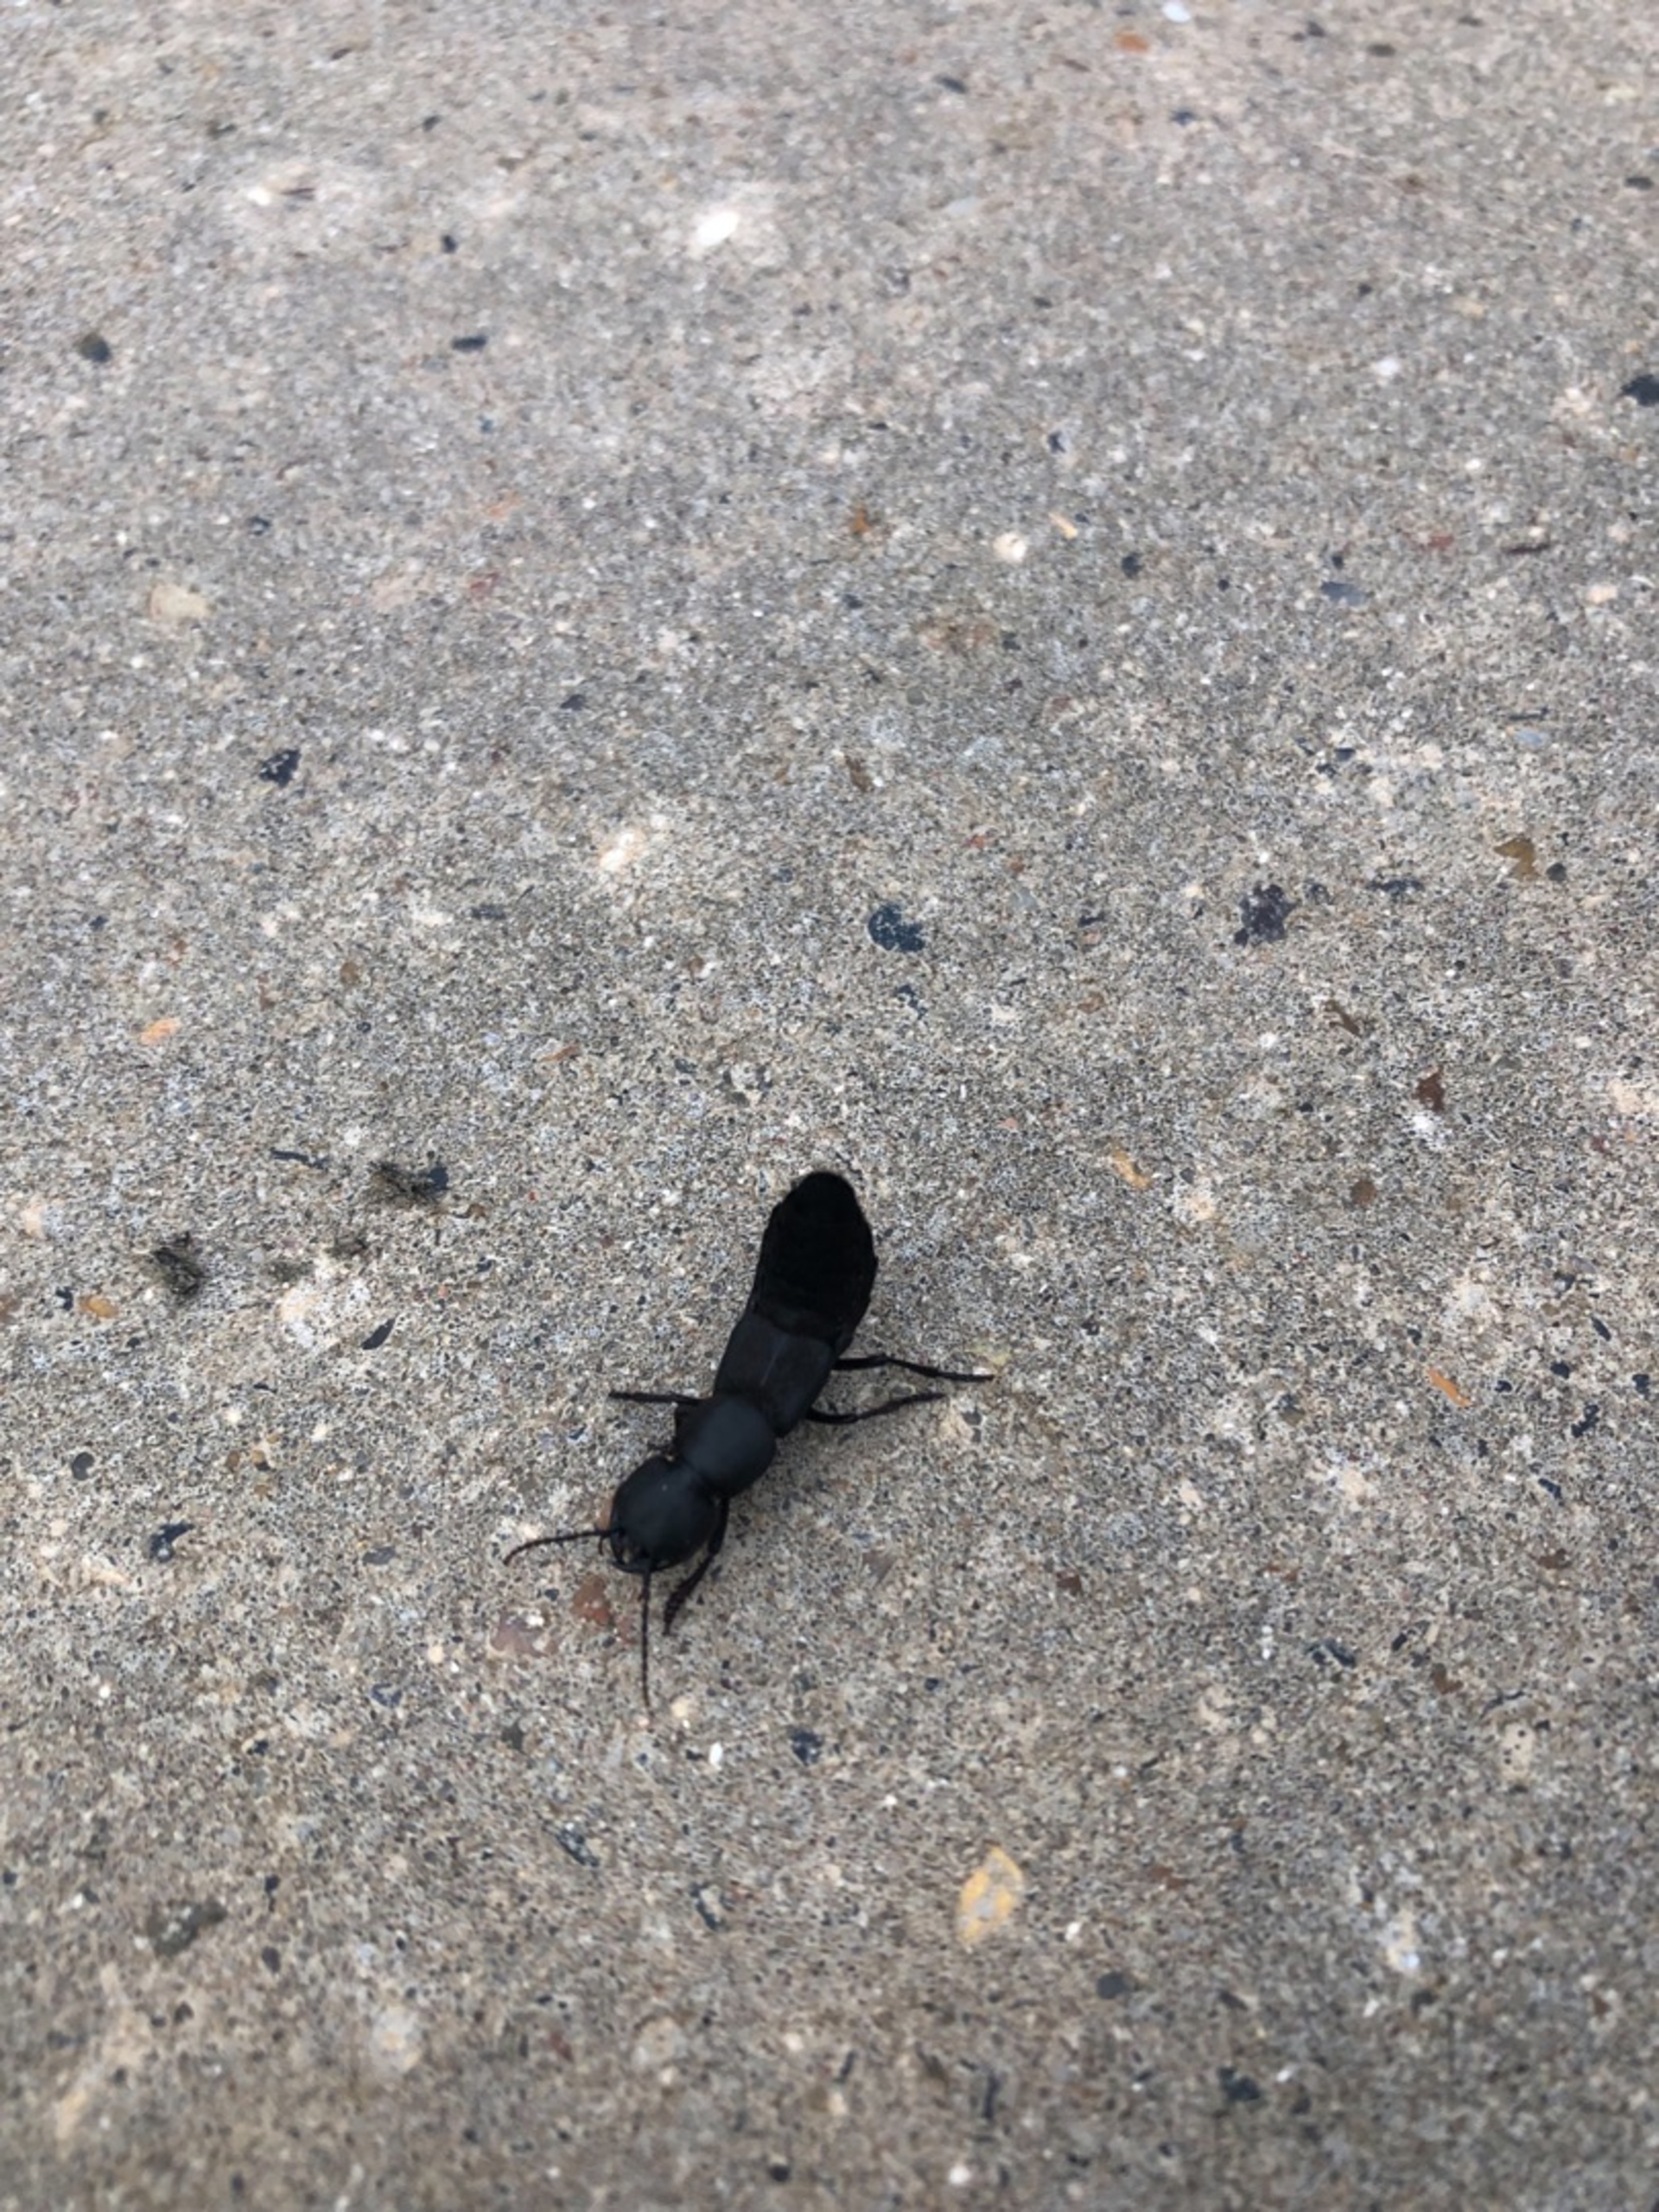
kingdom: Animalia
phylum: Arthropoda
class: Insecta
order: Coleoptera
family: Staphylinidae
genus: Ocypus
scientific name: Ocypus olens
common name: Stor rovbille
